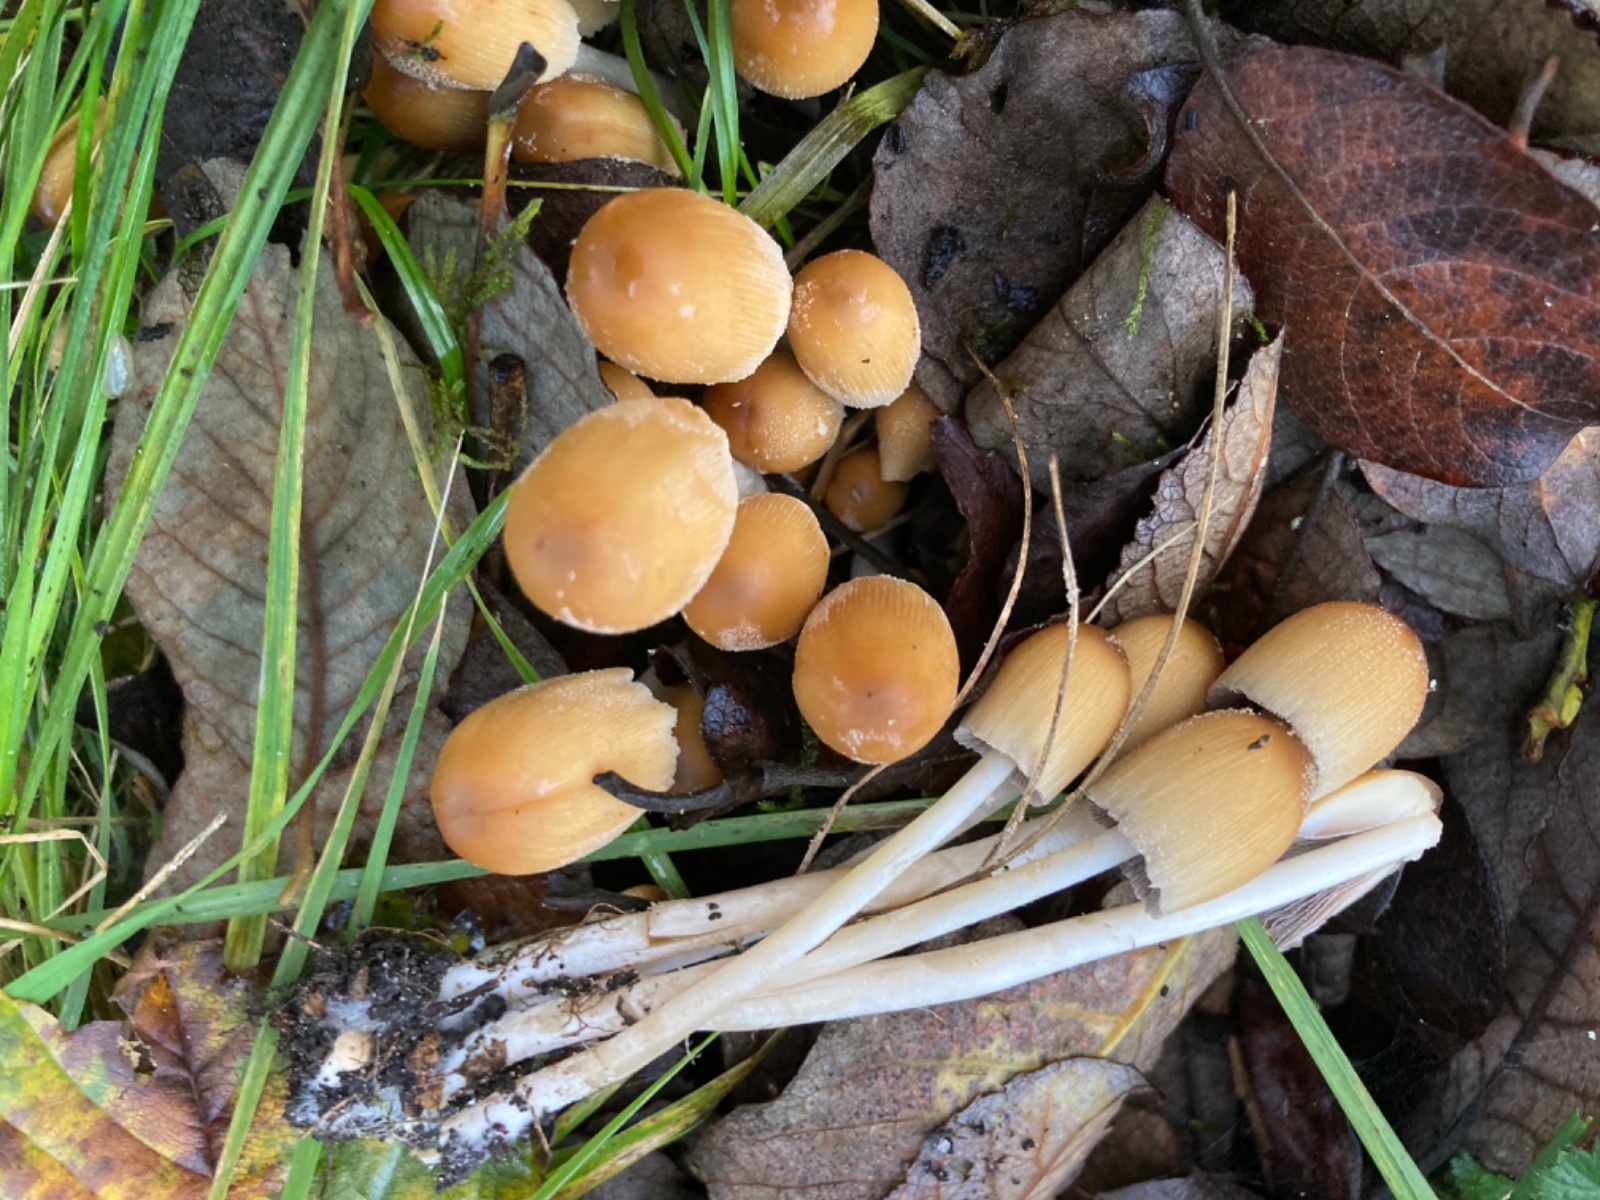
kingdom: Fungi
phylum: Basidiomycota
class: Agaricomycetes
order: Agaricales
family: Psathyrellaceae
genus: Coprinellus
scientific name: Coprinellus micaceus
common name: glimmer-blækhat
